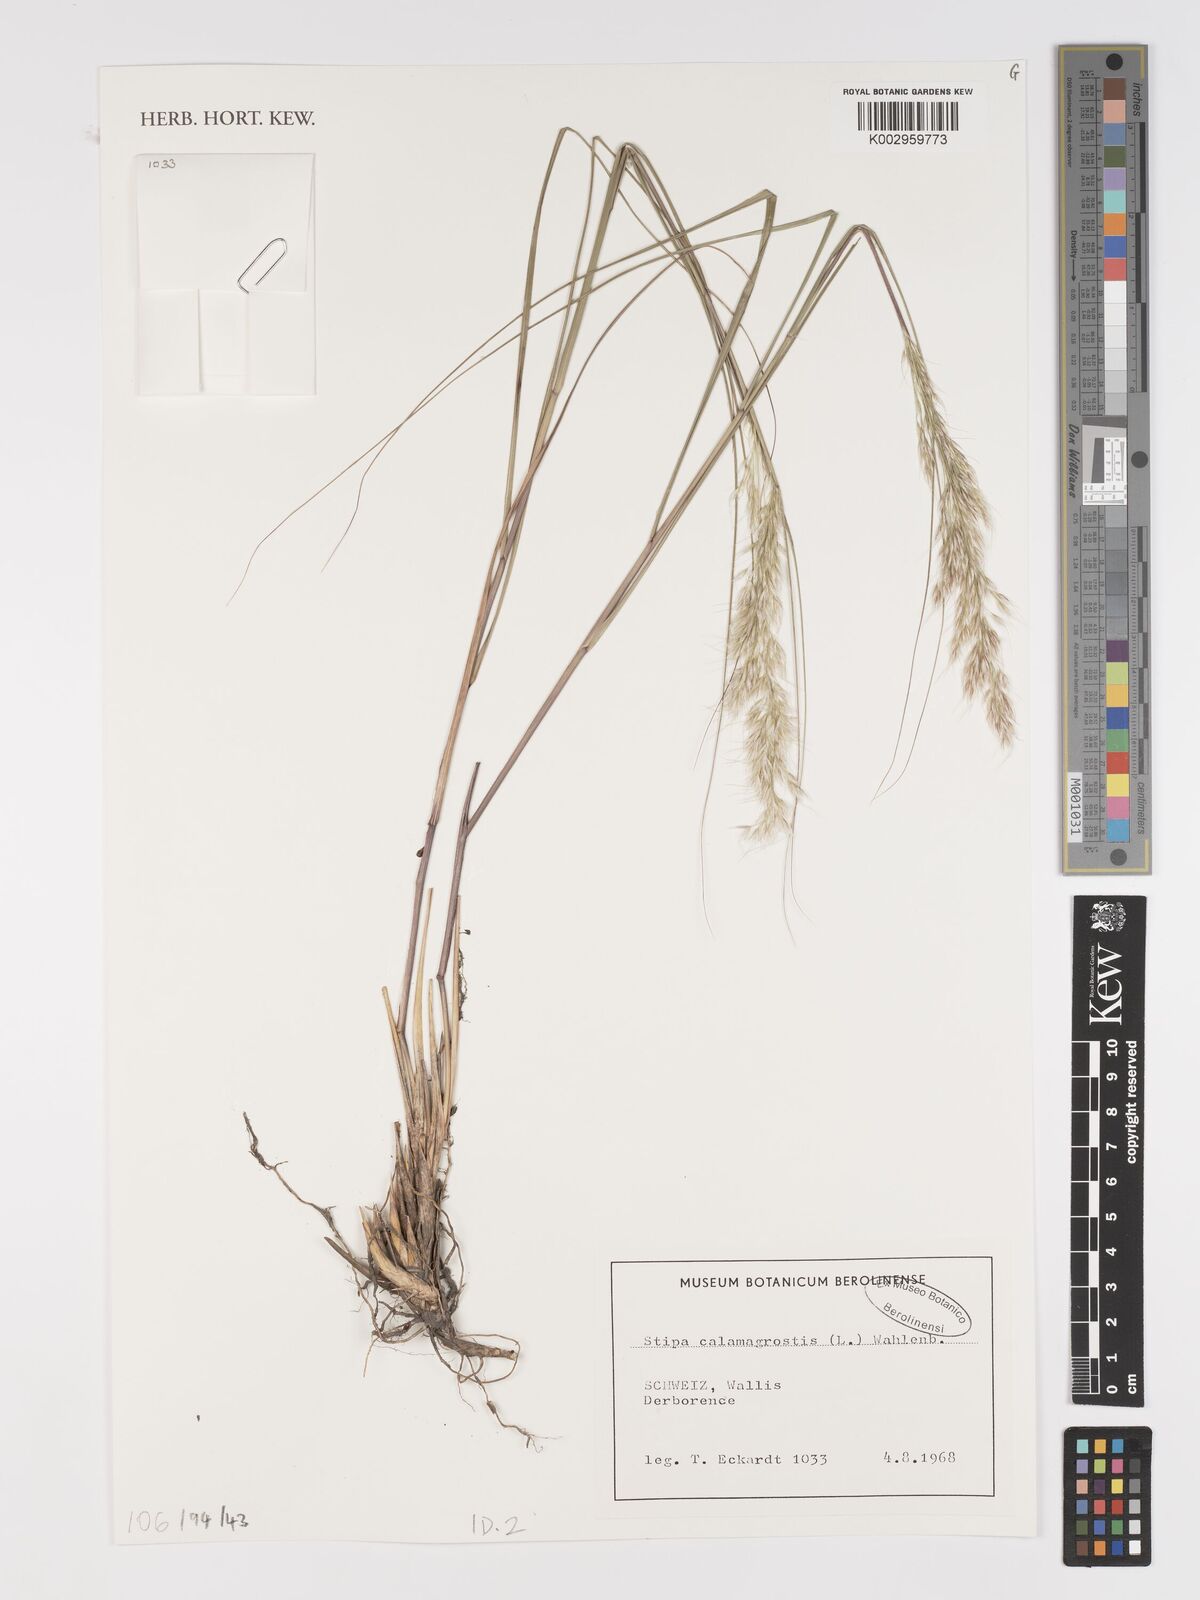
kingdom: Plantae
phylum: Tracheophyta
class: Liliopsida
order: Poales
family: Poaceae
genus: Achnatherum
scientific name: Achnatherum calamagrostis
